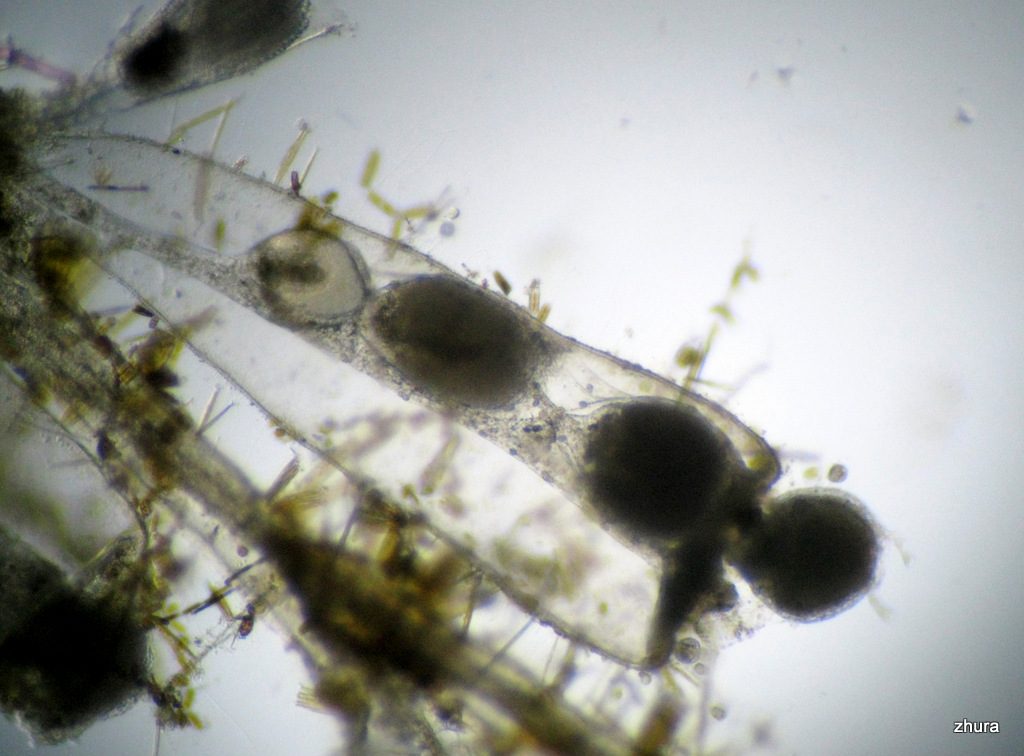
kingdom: Animalia
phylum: Cnidaria
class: Hydrozoa
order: Leptothecata
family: Campanulariidae
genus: Gonothyraea
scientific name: Gonothyraea loveni
